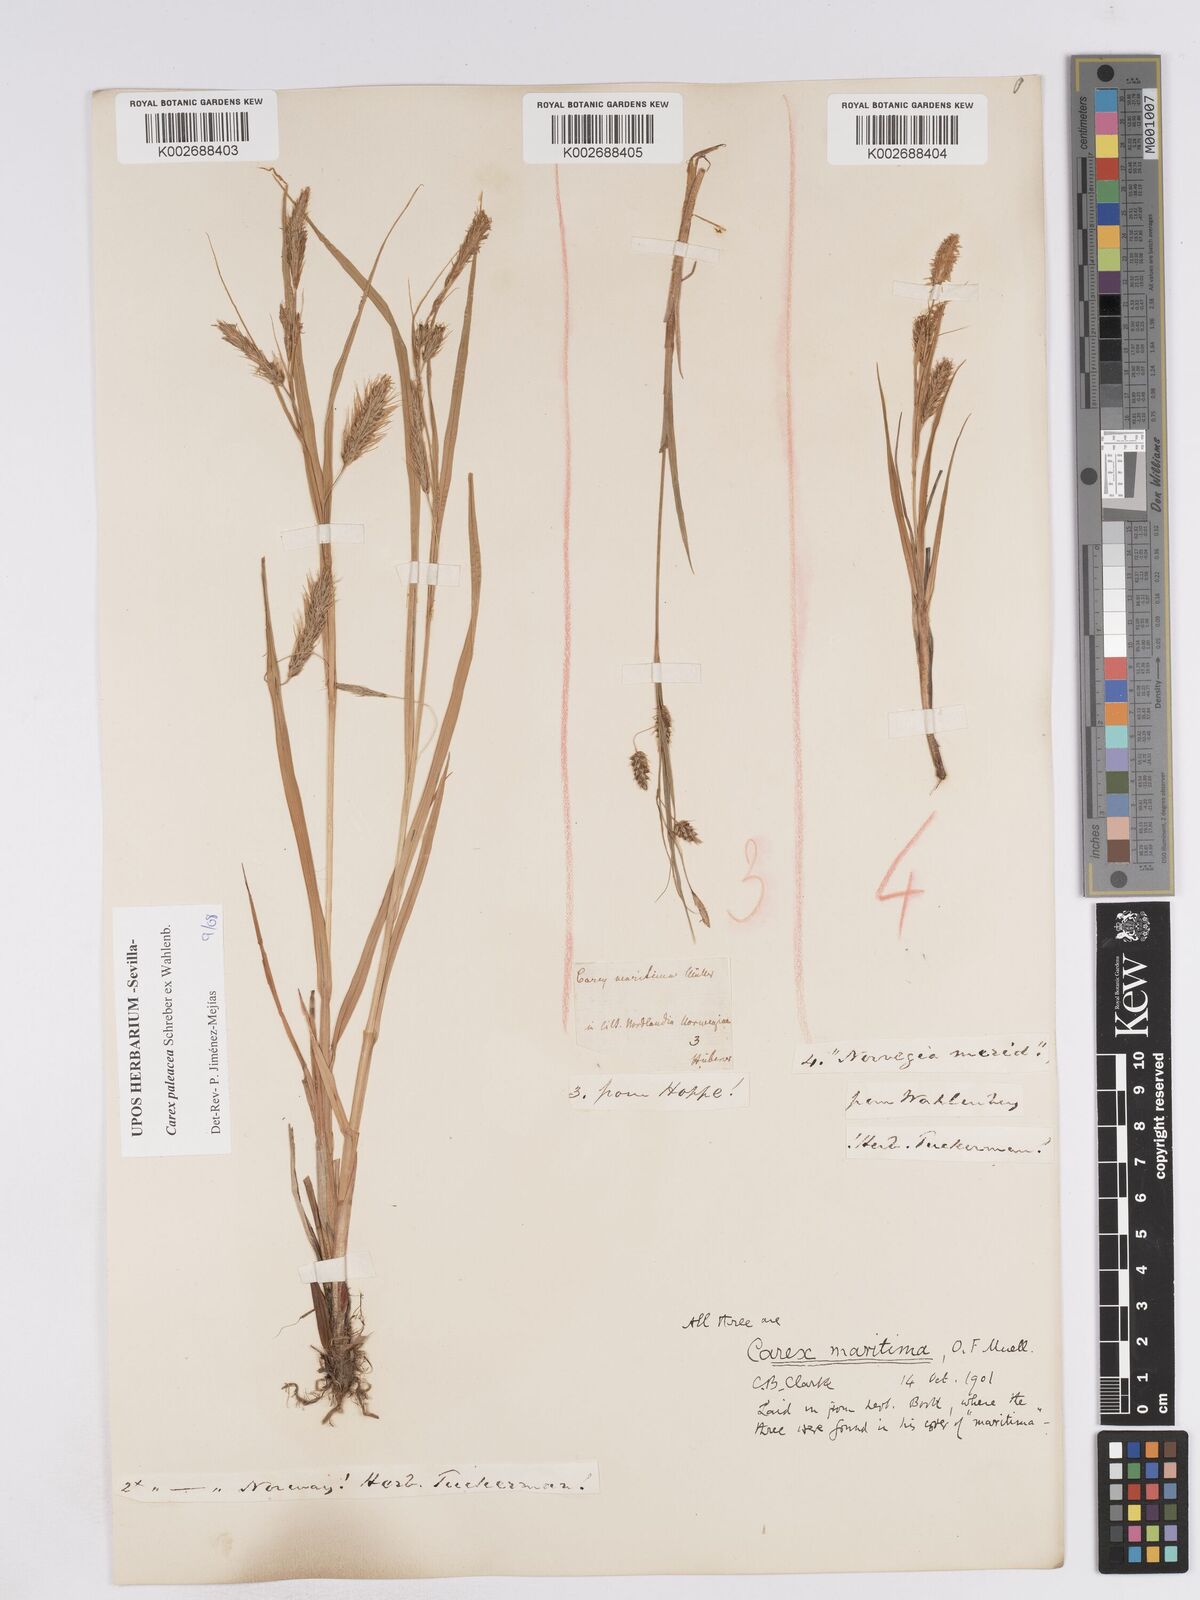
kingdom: Plantae
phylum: Tracheophyta
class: Liliopsida
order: Poales
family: Cyperaceae
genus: Carex
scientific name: Carex paleacea
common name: Chaffy sedge
